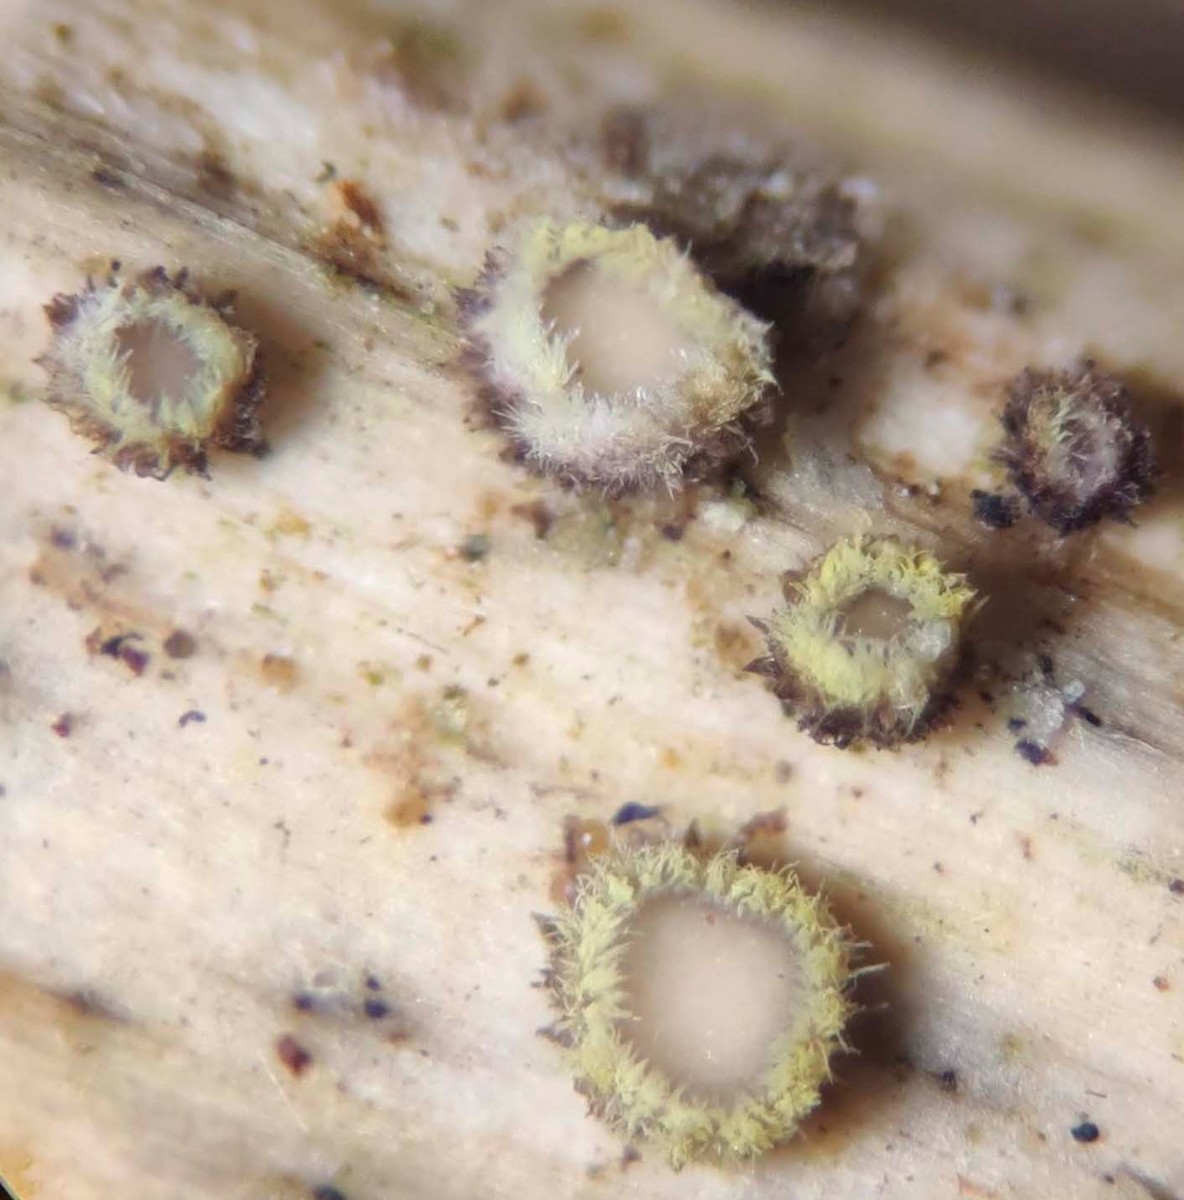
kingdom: Fungi
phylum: Ascomycota
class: Leotiomycetes
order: Helotiales
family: Lachnaceae
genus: Lachnum
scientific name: Lachnum sulphureum
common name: svovlhåret frynseskive
